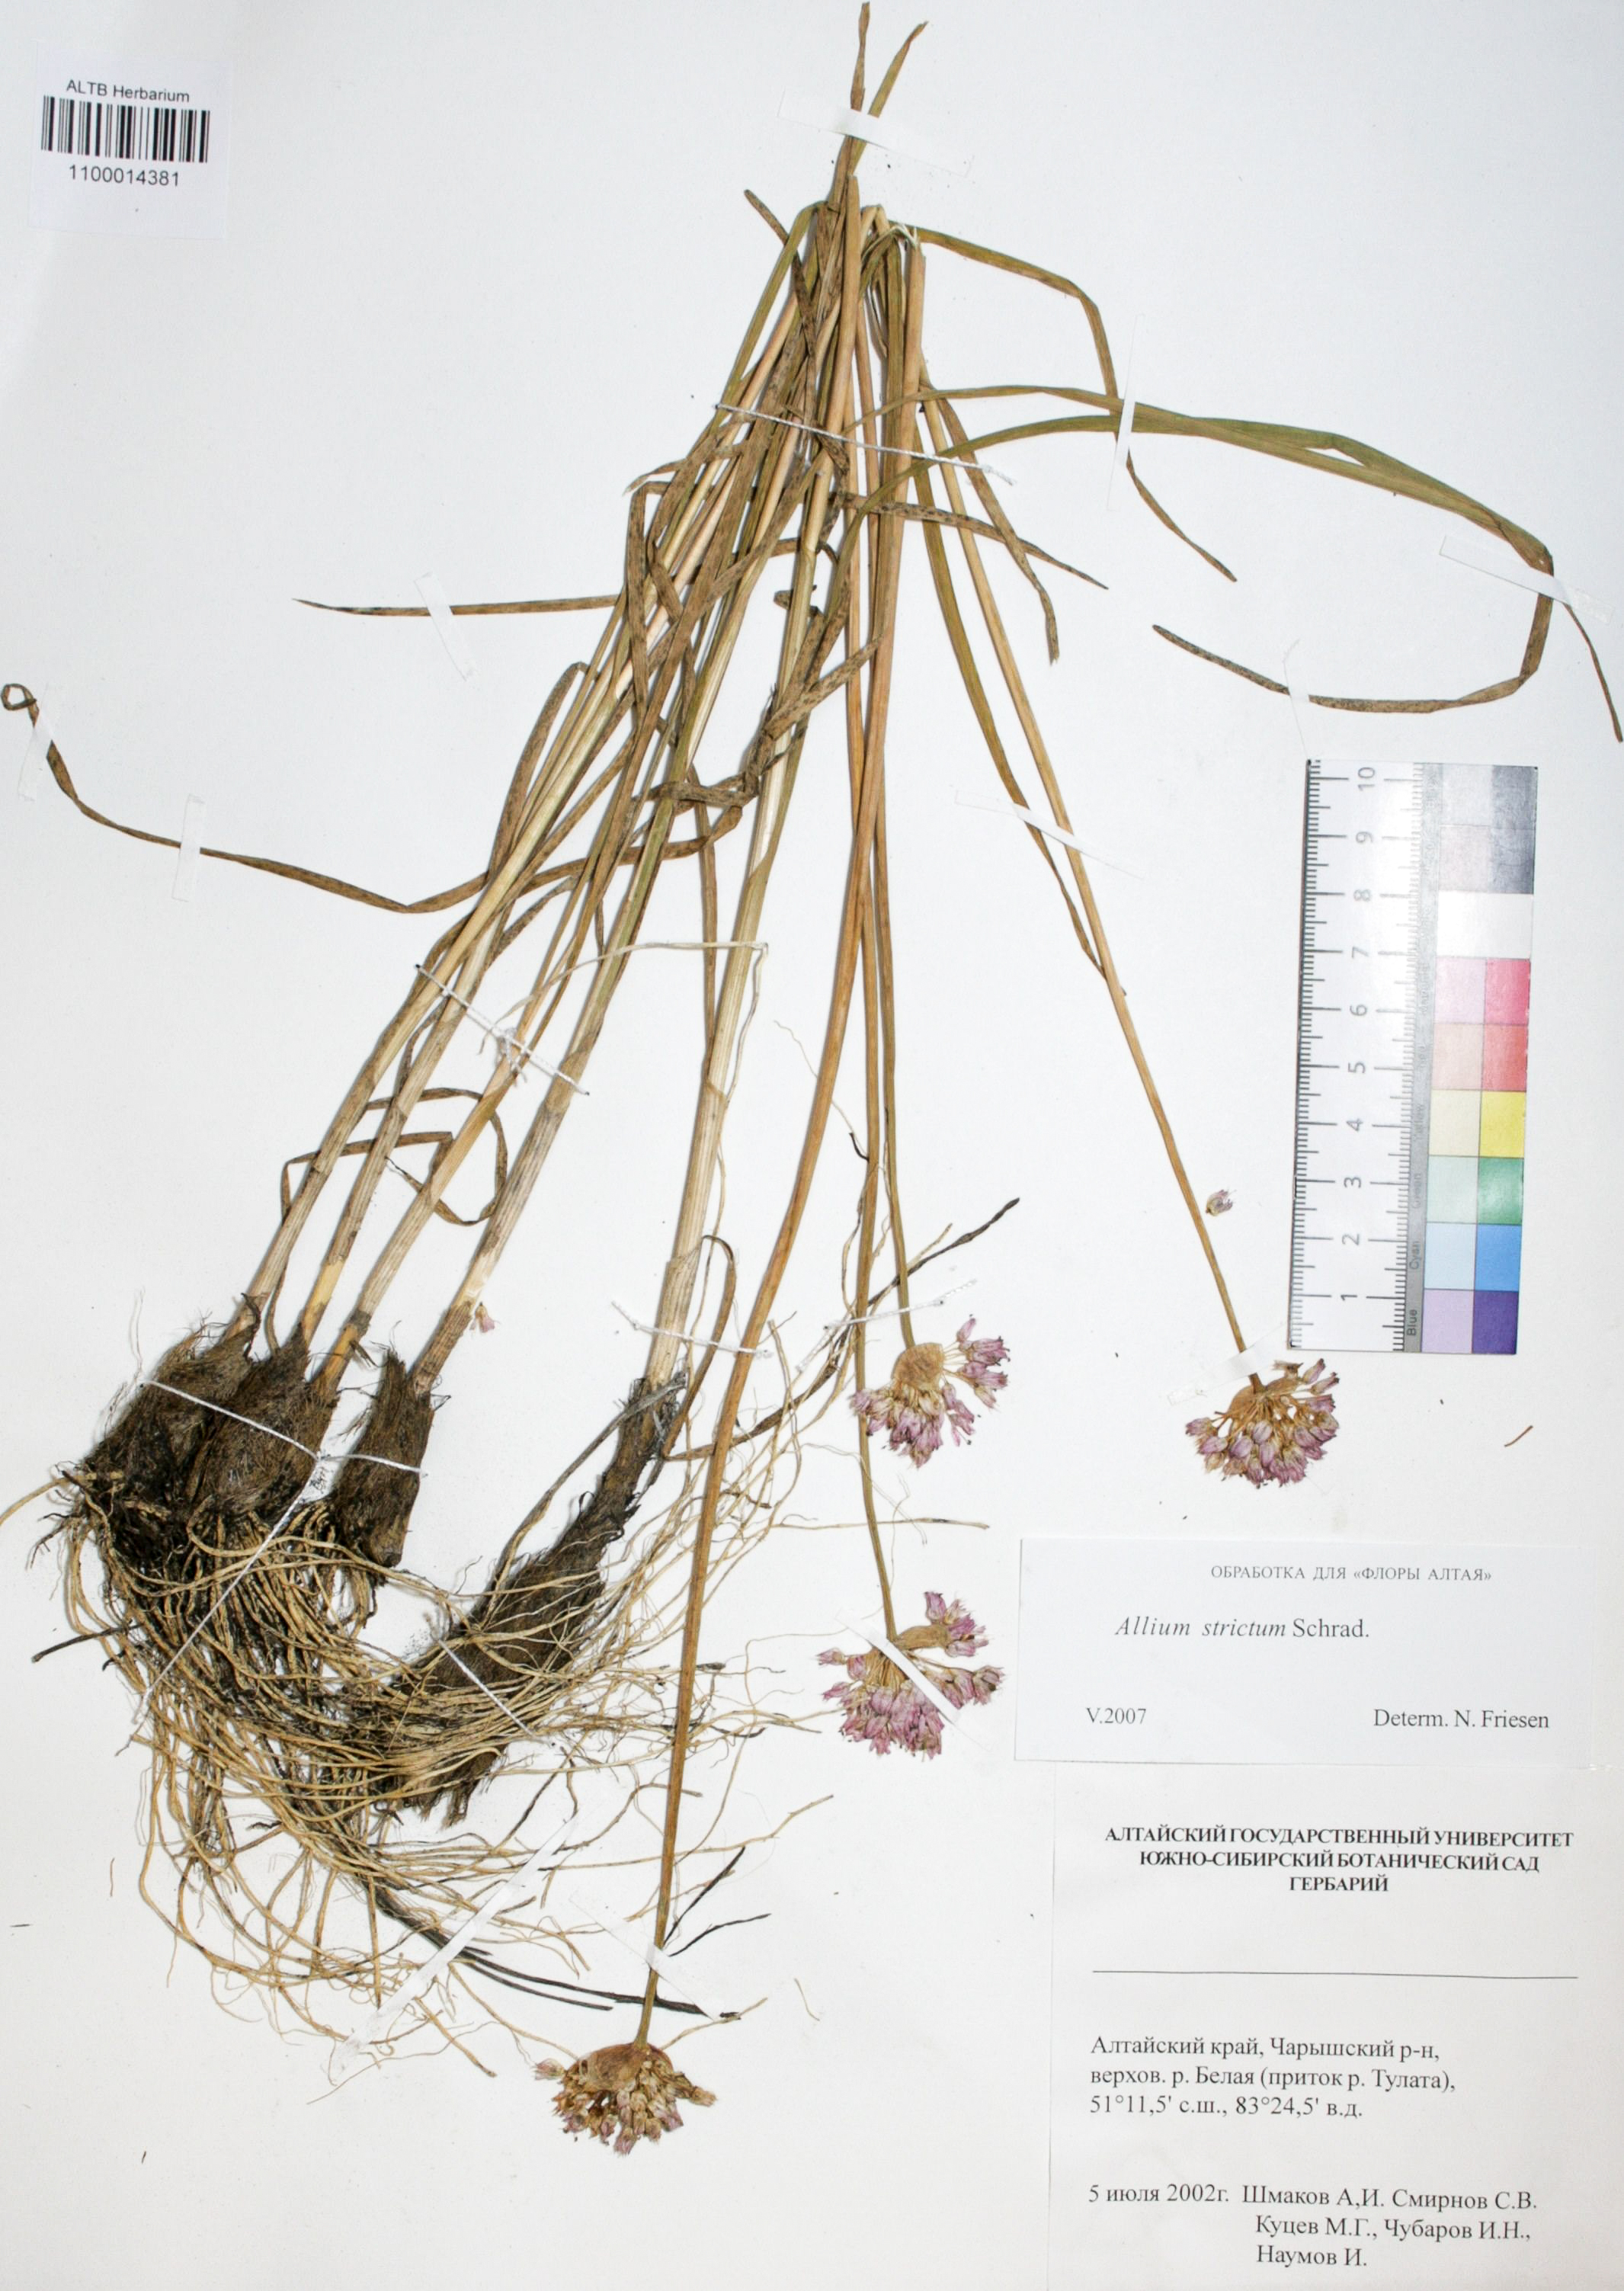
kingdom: Plantae
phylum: Tracheophyta
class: Liliopsida
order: Asparagales
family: Amaryllidaceae
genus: Allium
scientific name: Allium strictum
